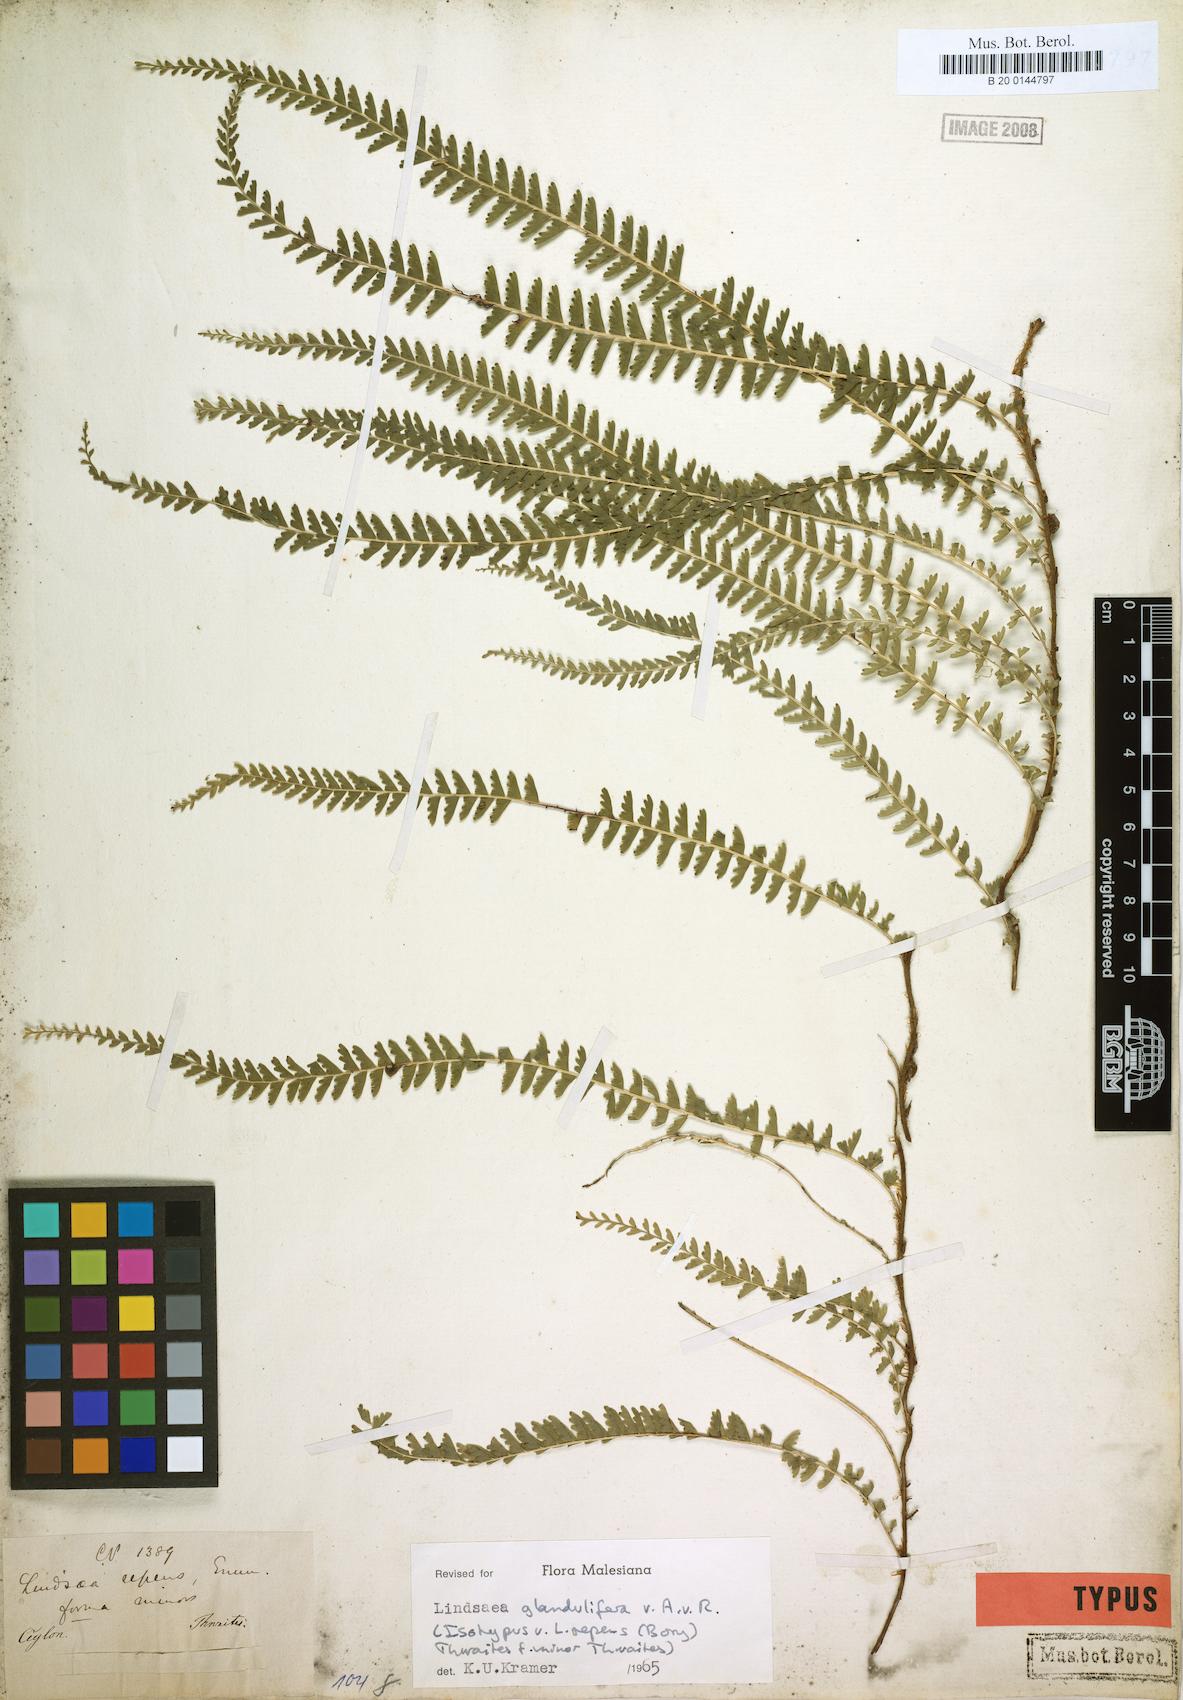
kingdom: Plantae
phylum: Tracheophyta
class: Polypodiopsida
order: Polypodiales
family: Lindsaeaceae
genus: Lindsaea
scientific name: Lindsaea glandulifera
